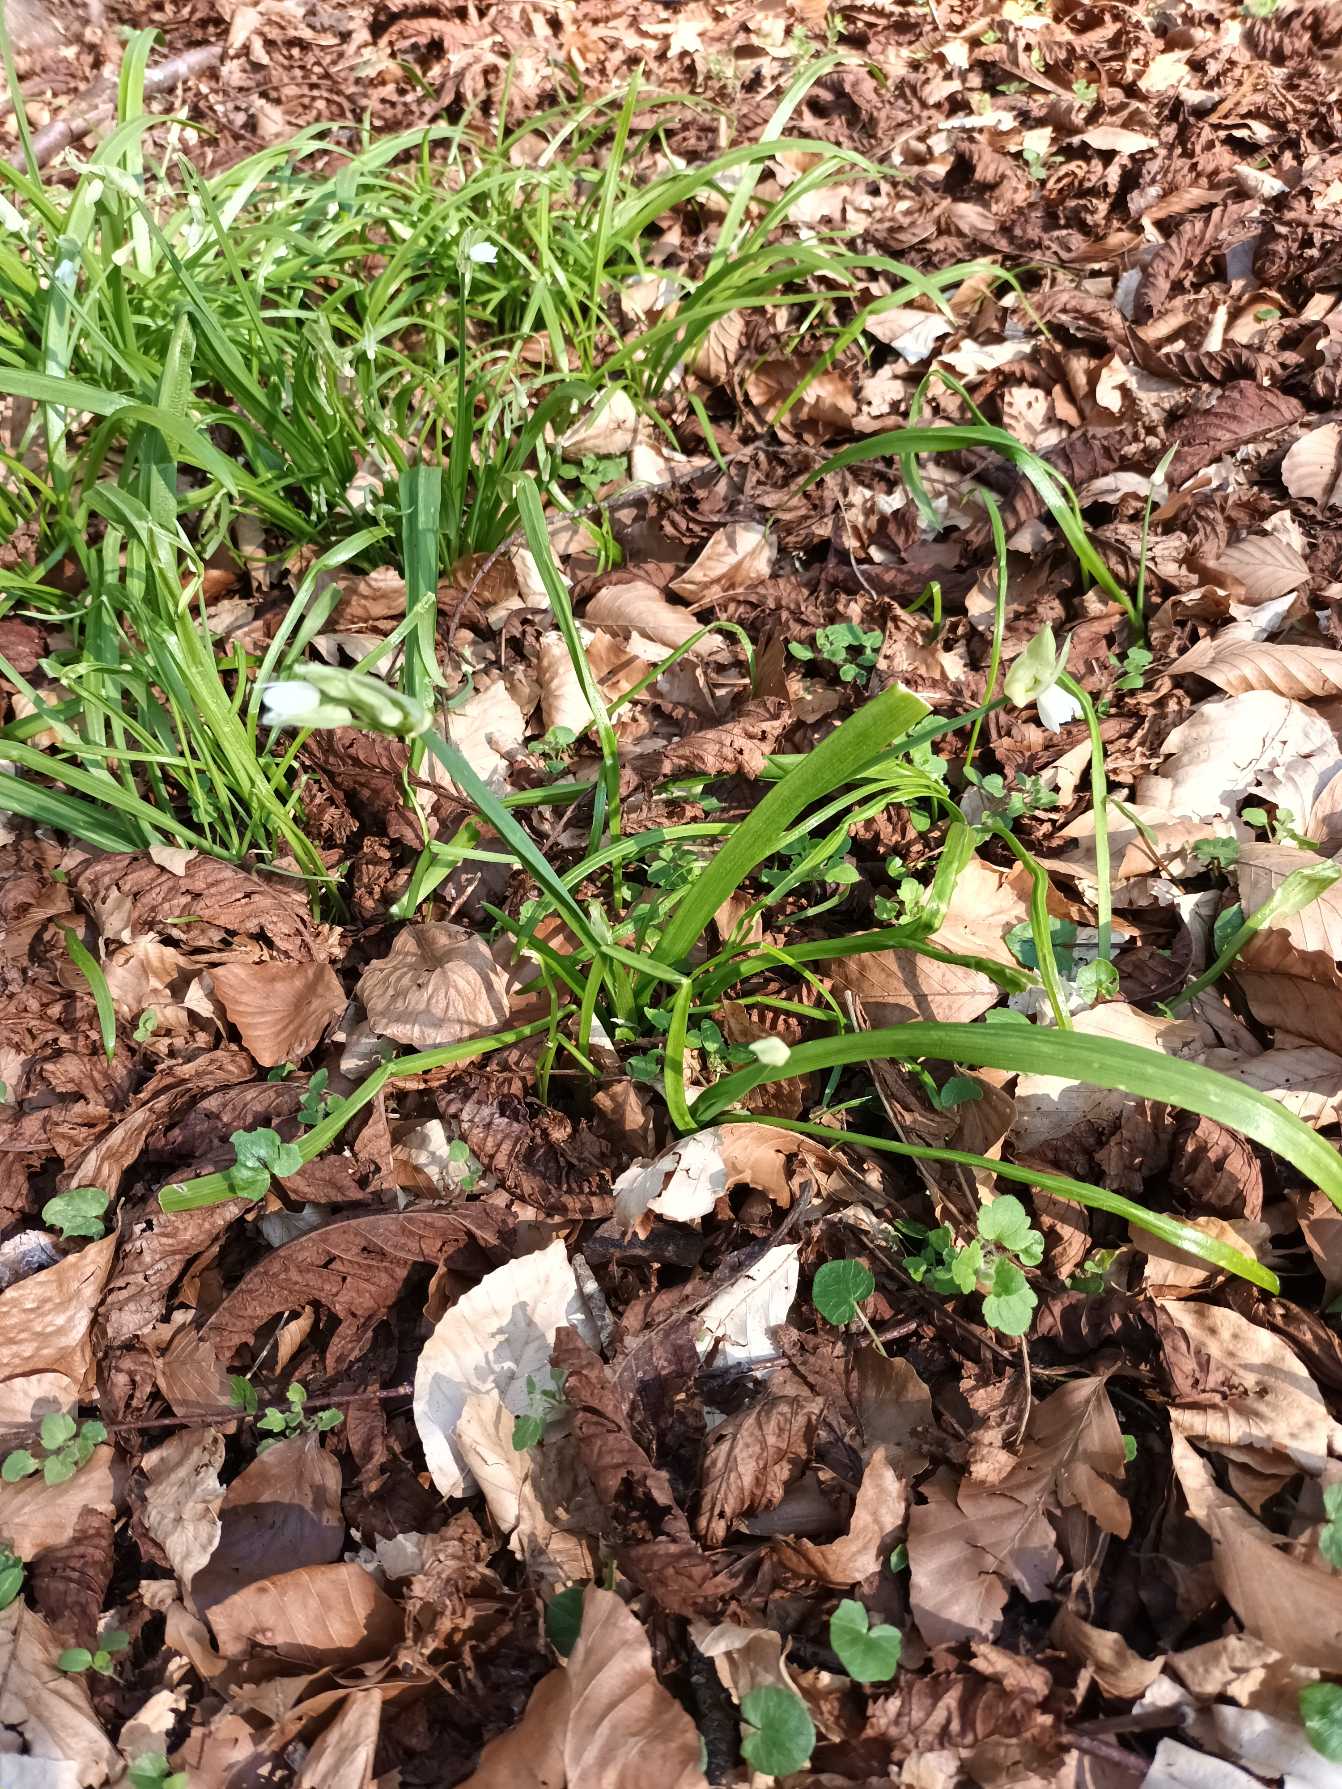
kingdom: Plantae
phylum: Tracheophyta
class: Liliopsida
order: Asparagales
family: Amaryllidaceae
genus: Allium
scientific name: Allium paradoxum
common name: Spøjs løg
